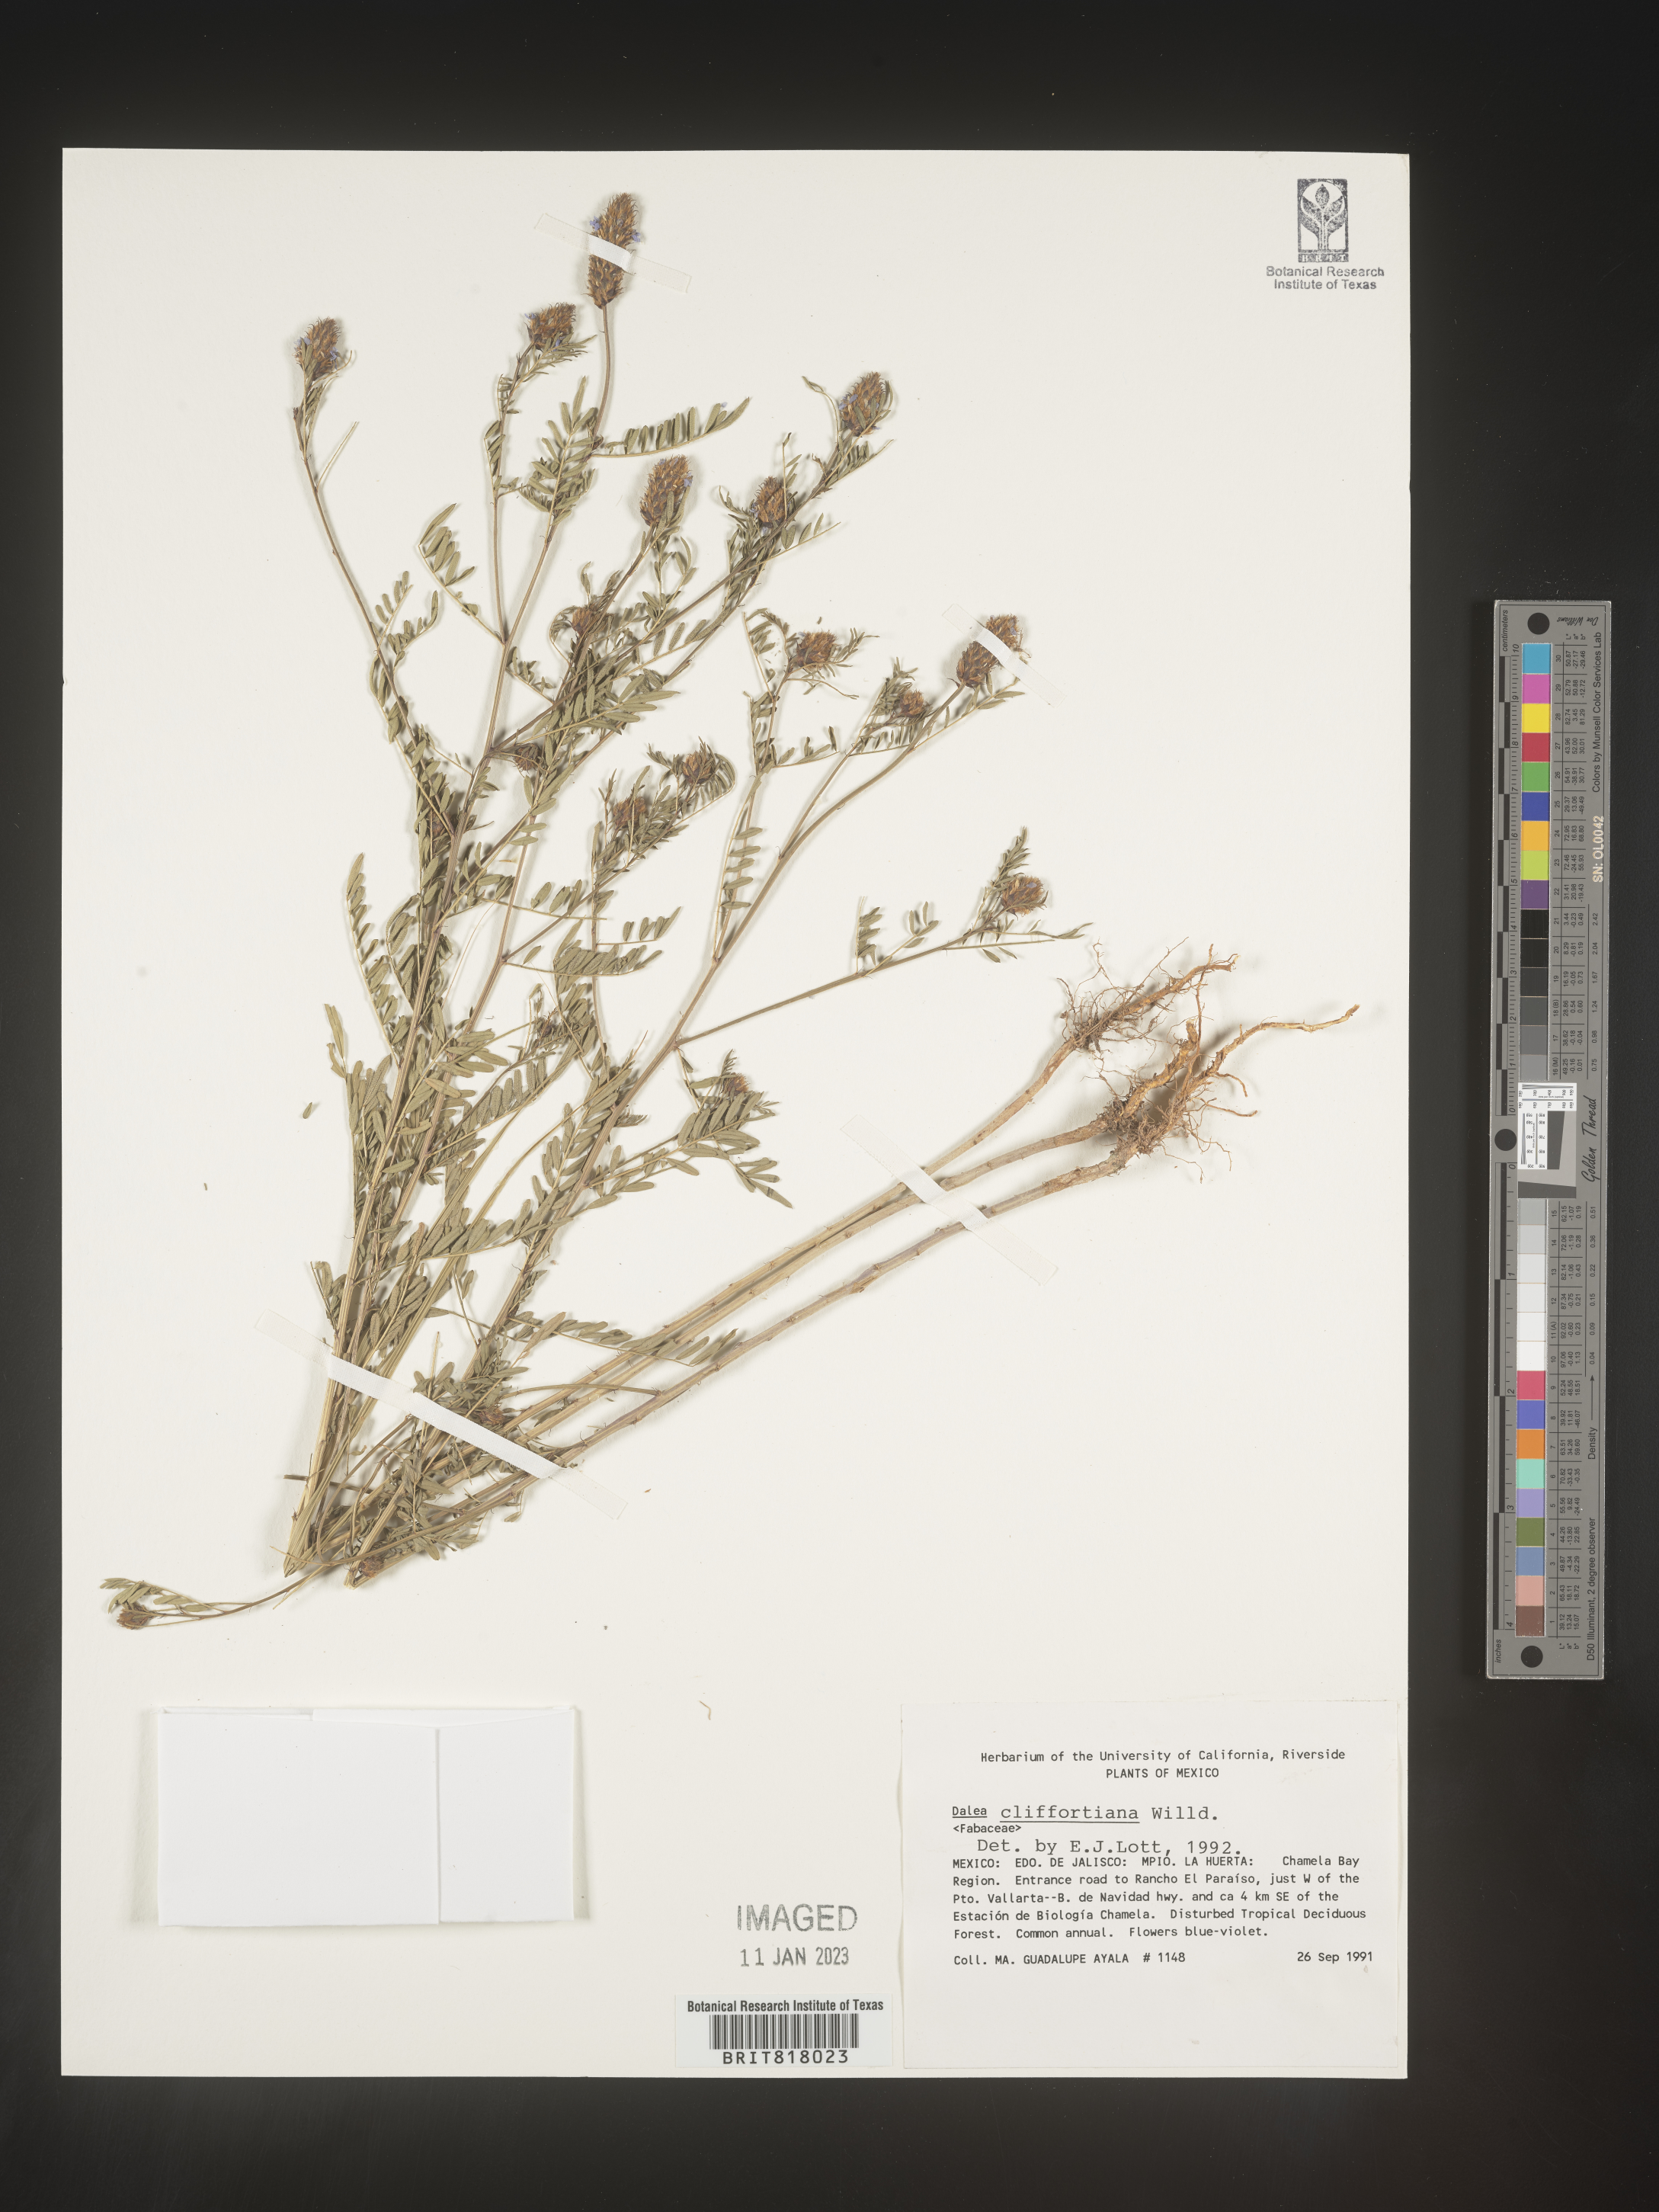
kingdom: Plantae
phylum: Tracheophyta
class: Magnoliopsida
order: Fabales
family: Fabaceae
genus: Dalea
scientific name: Dalea
